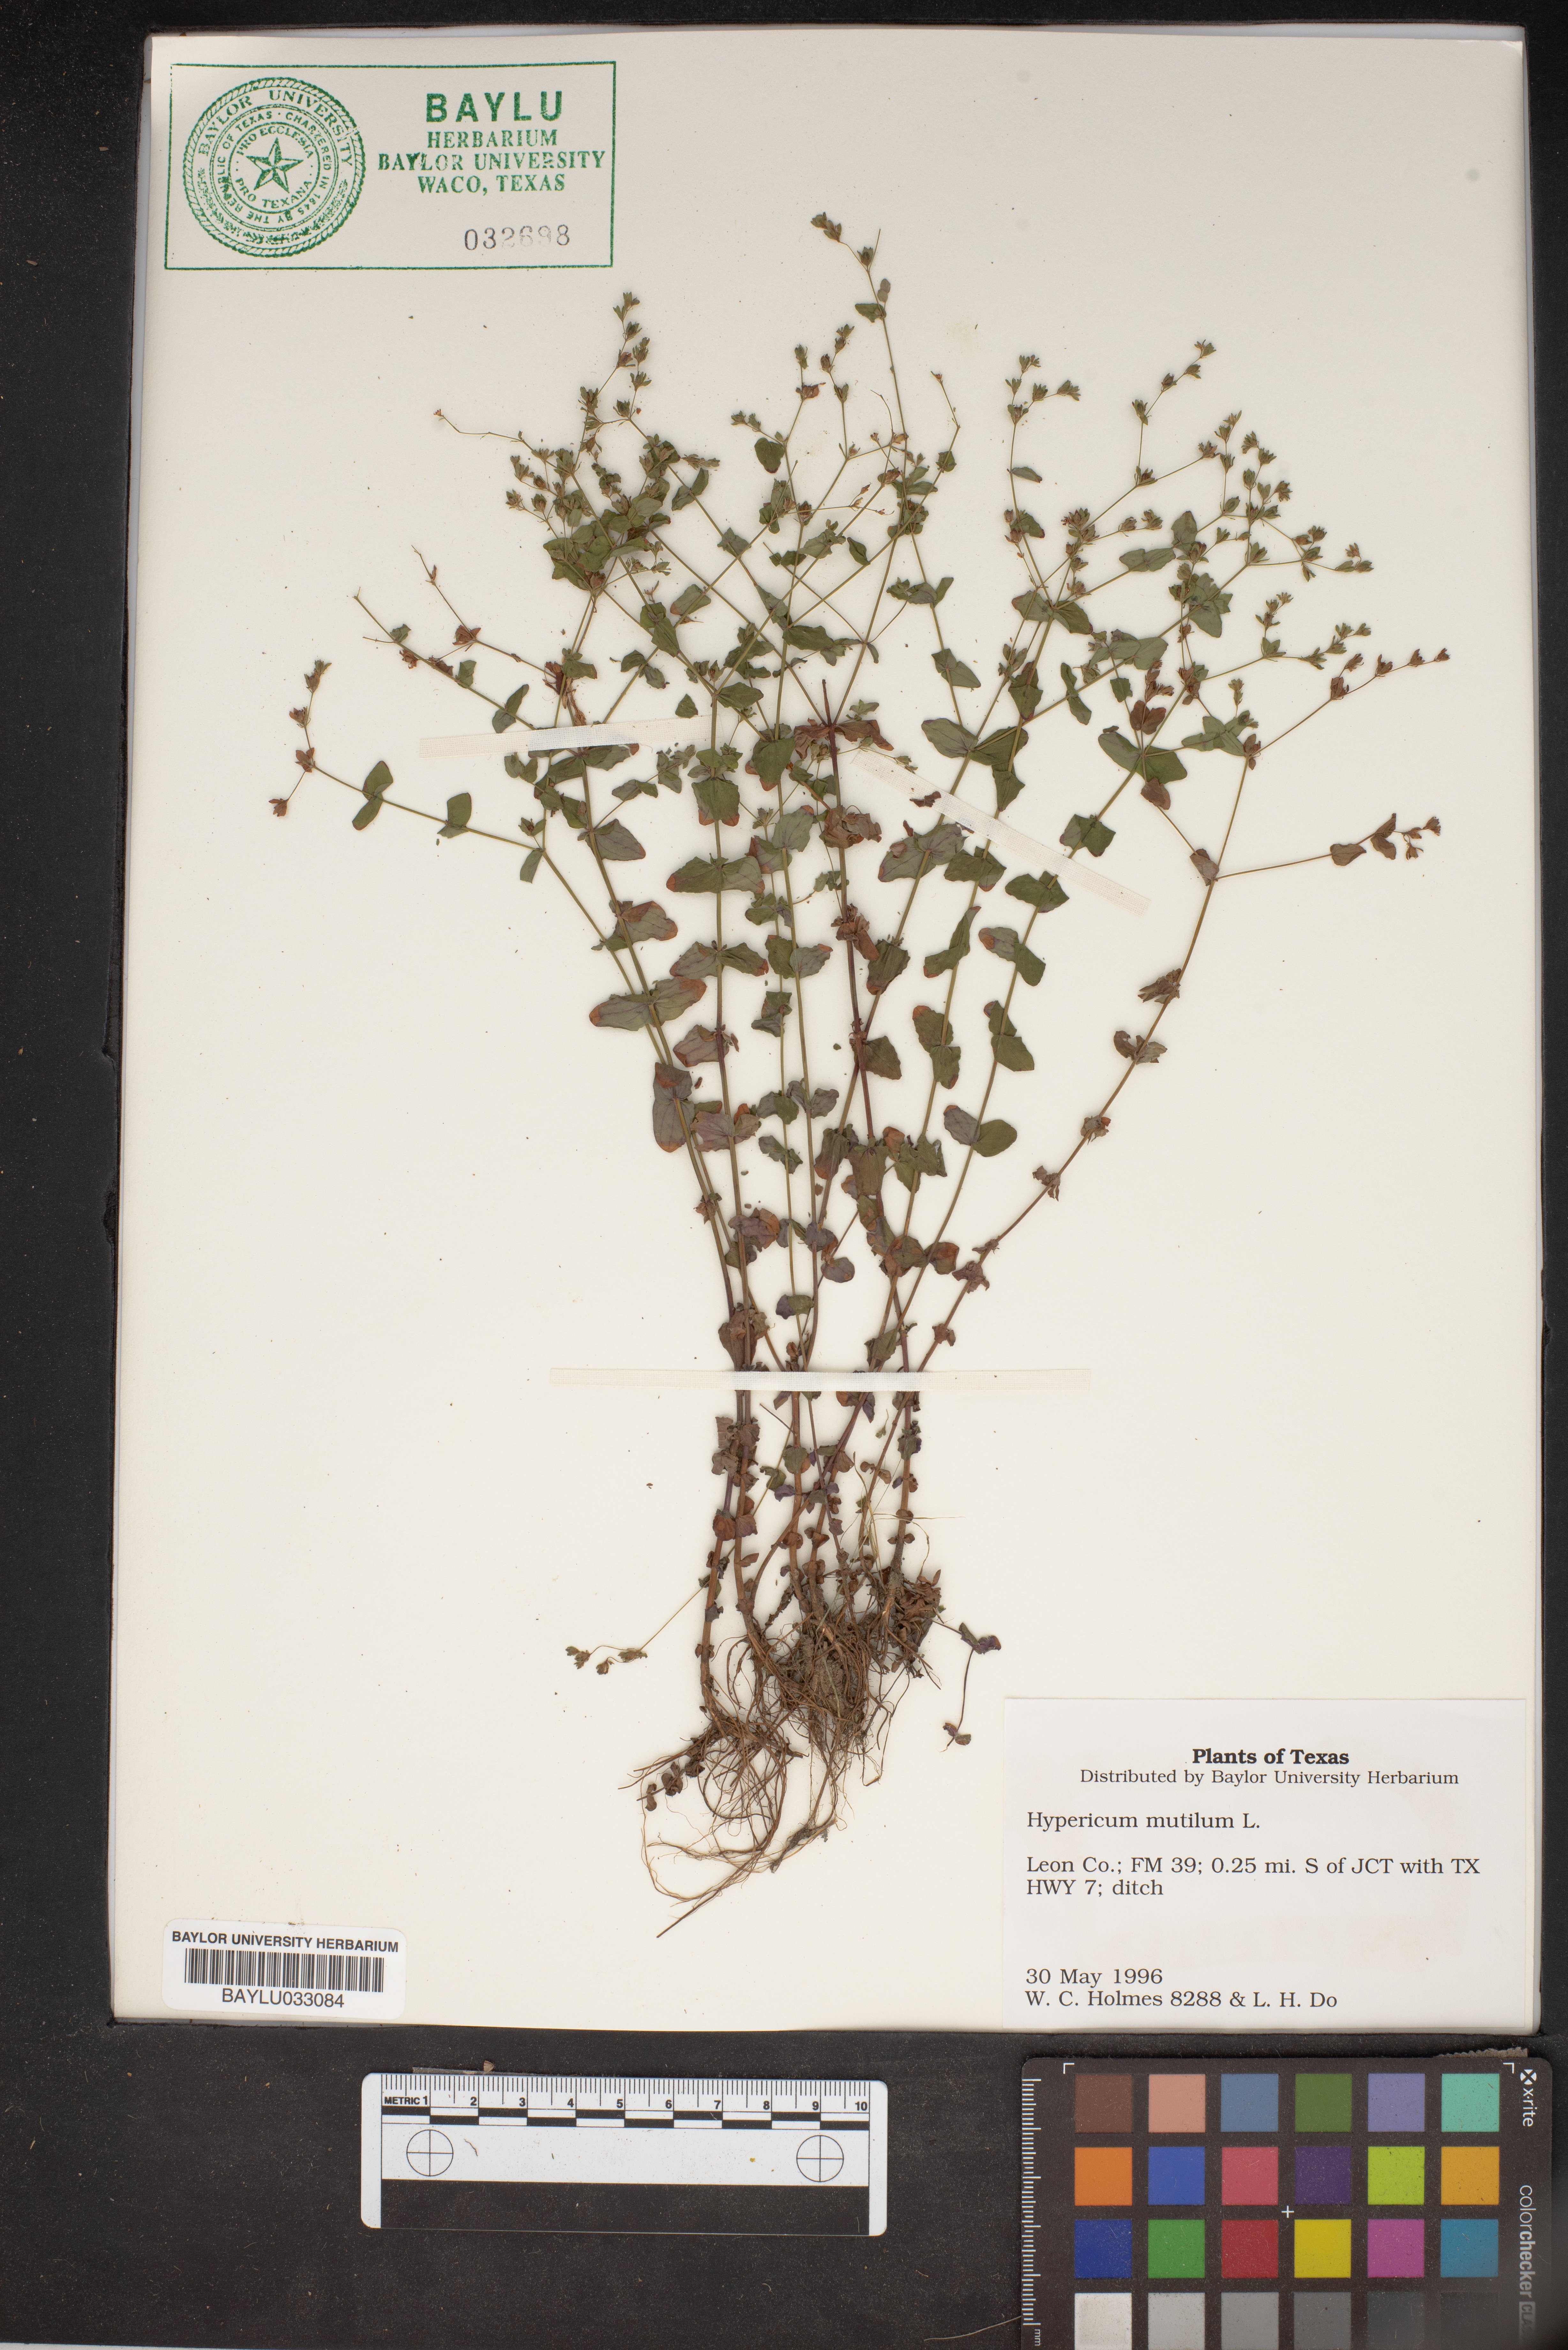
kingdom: Plantae
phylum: Tracheophyta
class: Magnoliopsida
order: Malpighiales
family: Hypericaceae
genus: Hypericum
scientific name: Hypericum mutilum
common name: Dwarf st. john's-wort
